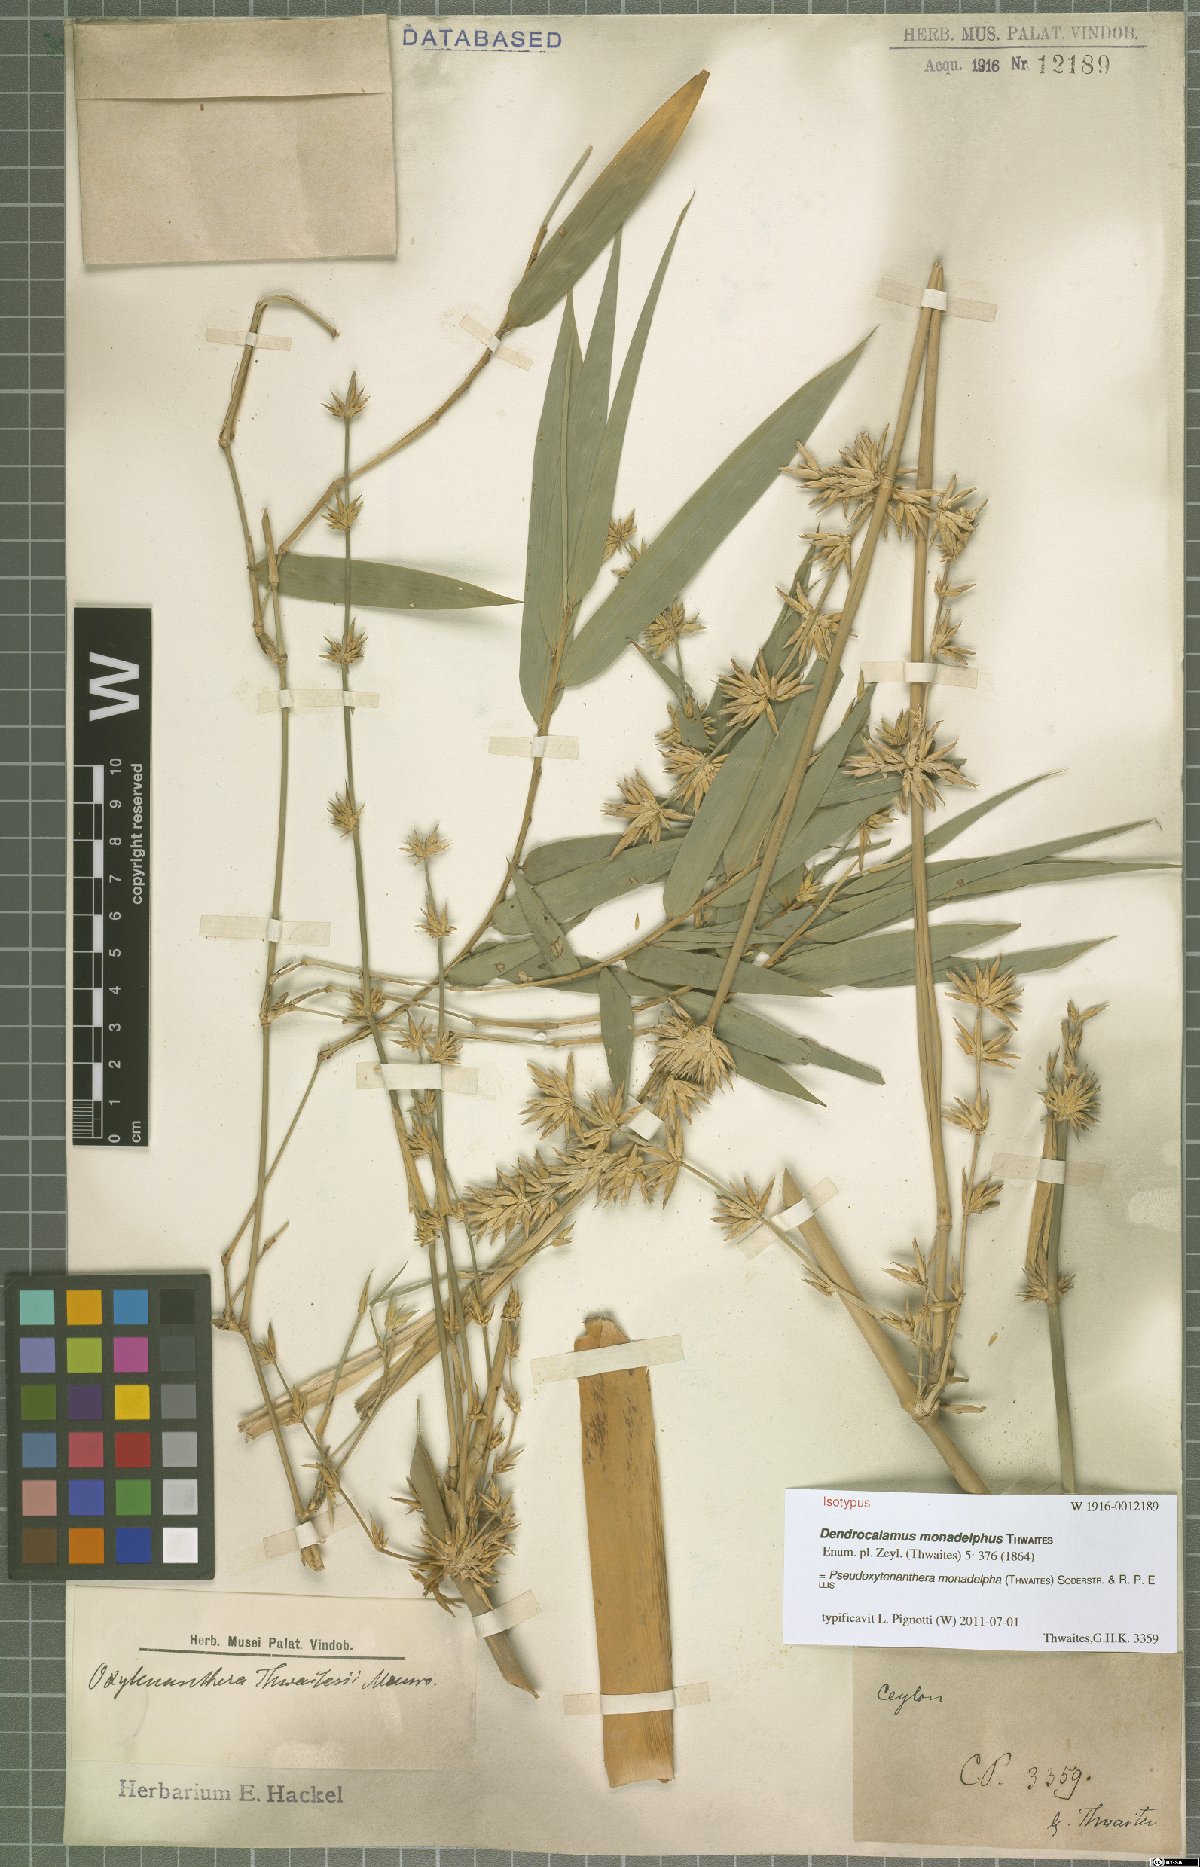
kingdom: Plantae
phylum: Tracheophyta
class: Liliopsida
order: Poales
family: Poaceae
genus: Pseudoxytenanthera
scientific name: Pseudoxytenanthera monadelpha
